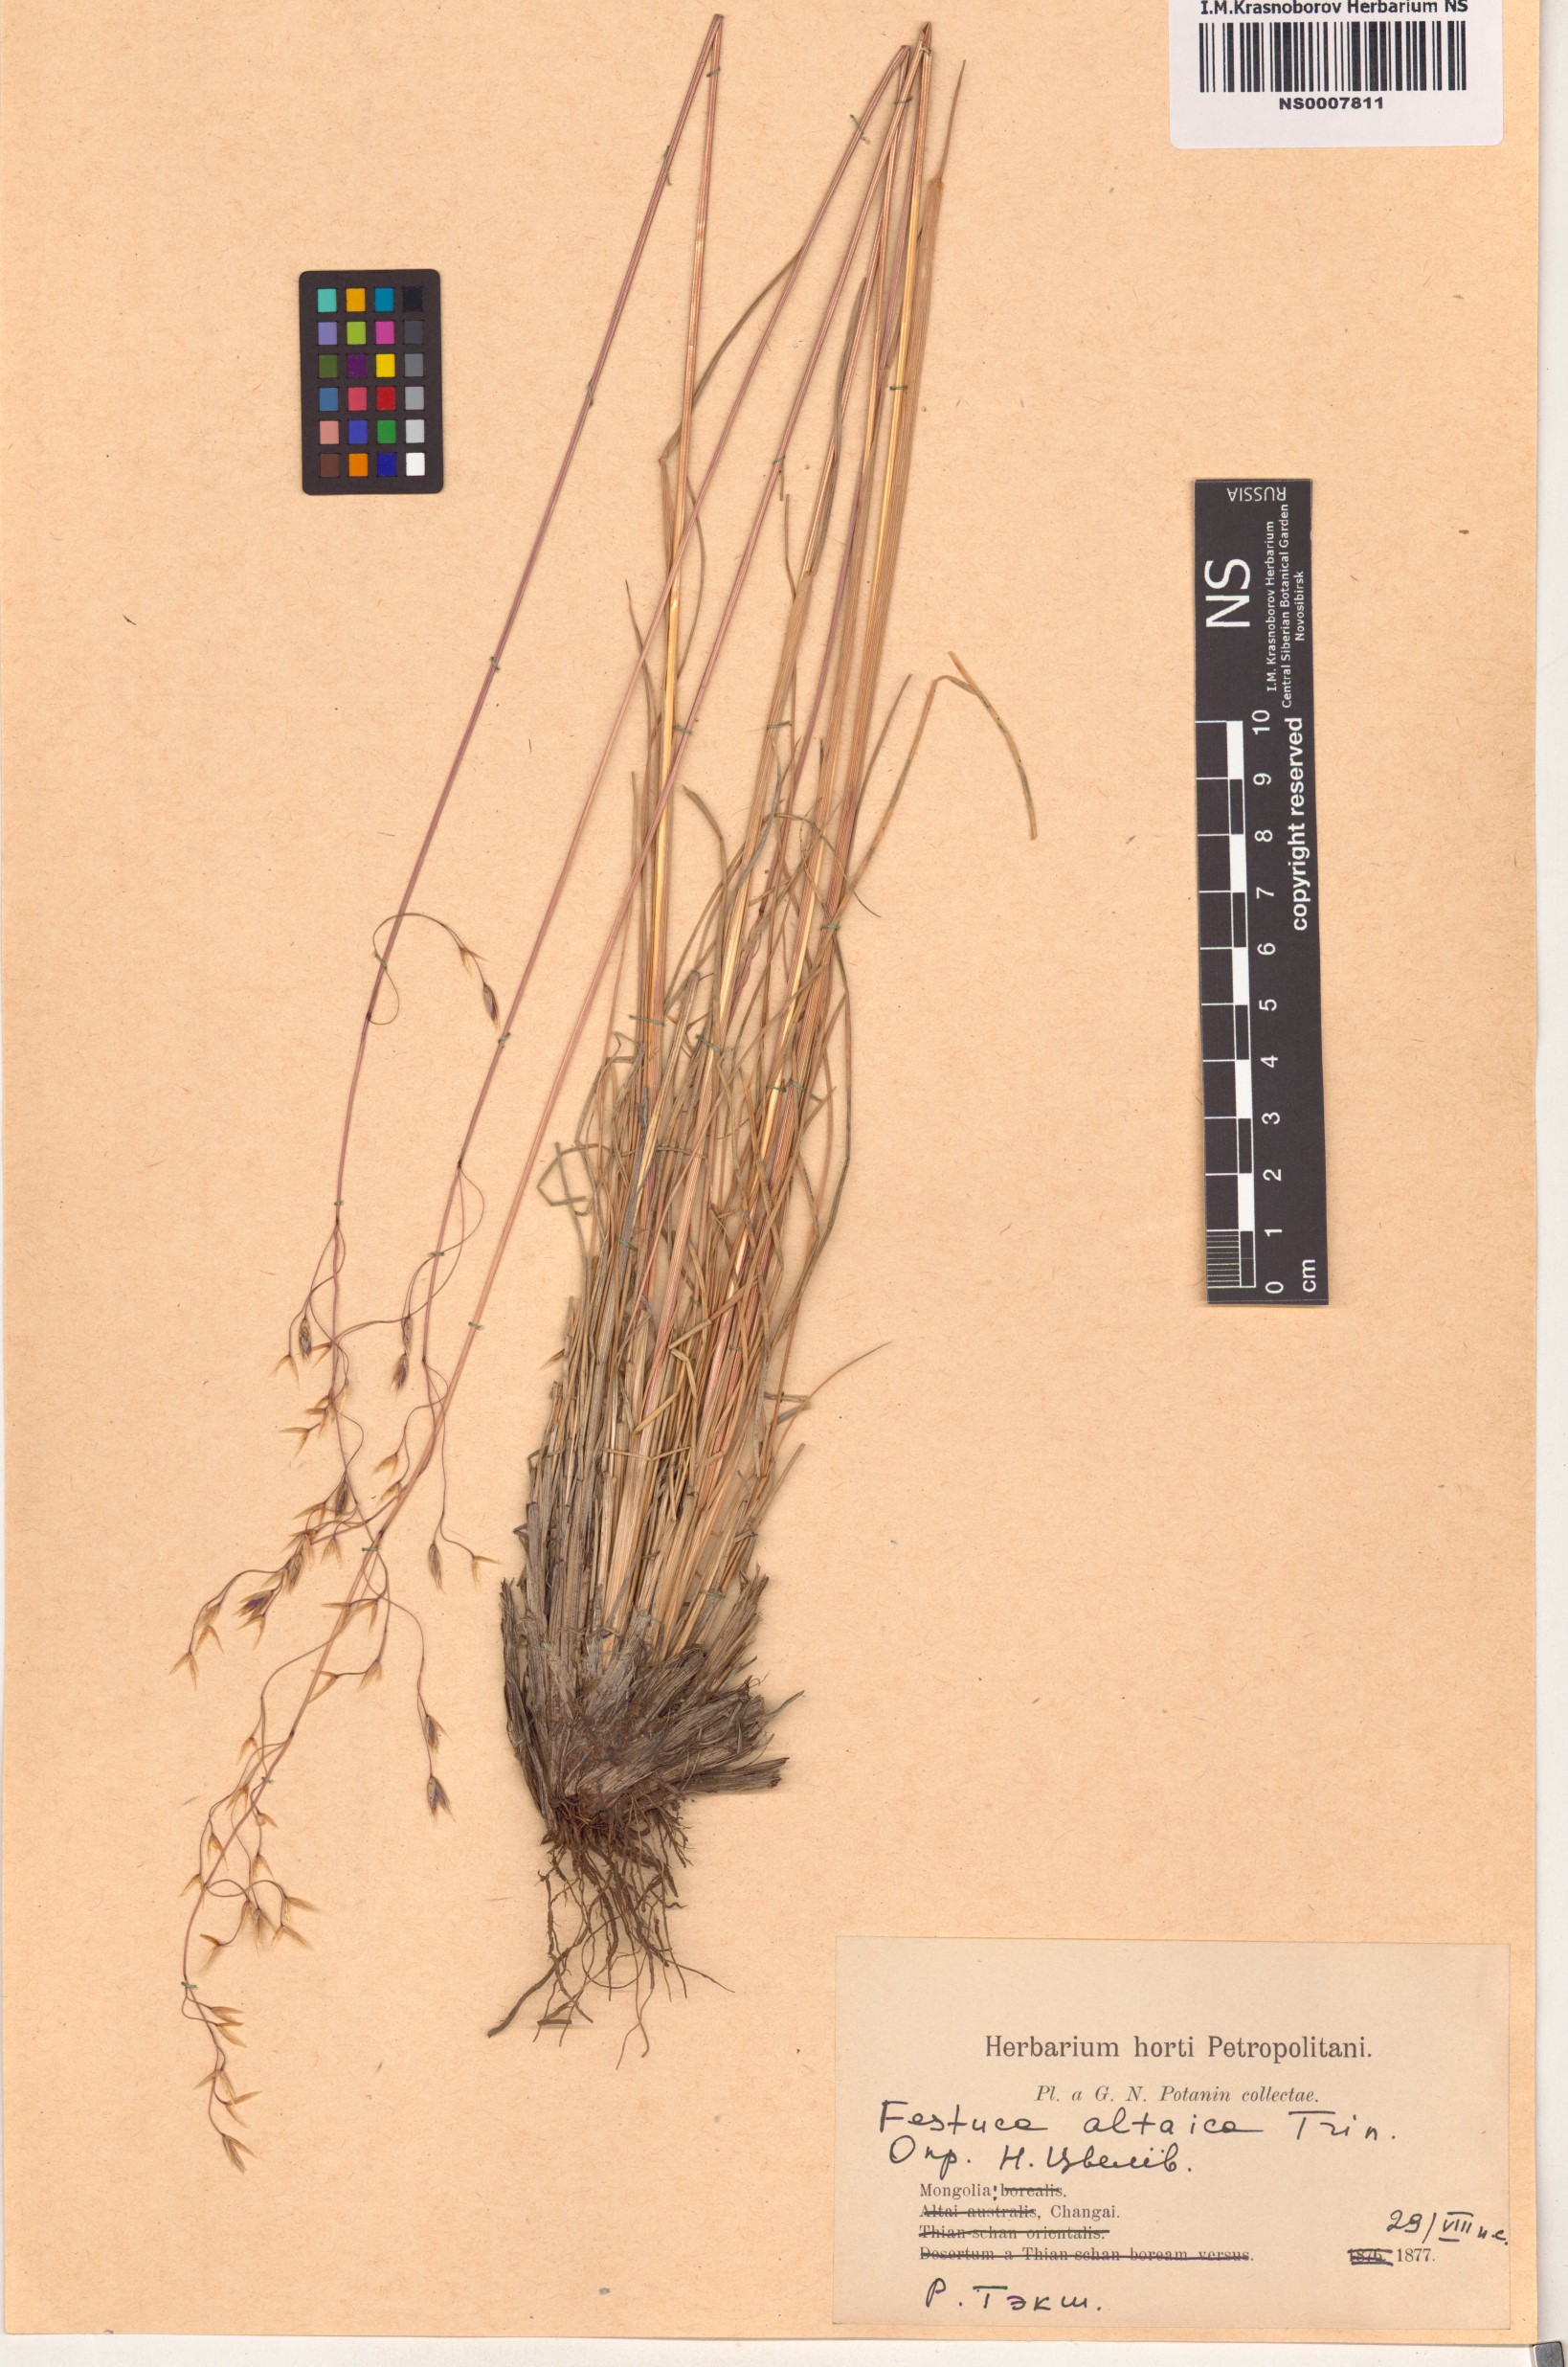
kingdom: Plantae
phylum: Tracheophyta
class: Liliopsida
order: Poales
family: Poaceae
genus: Festuca
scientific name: Festuca altaica
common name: Northern rough fescue
